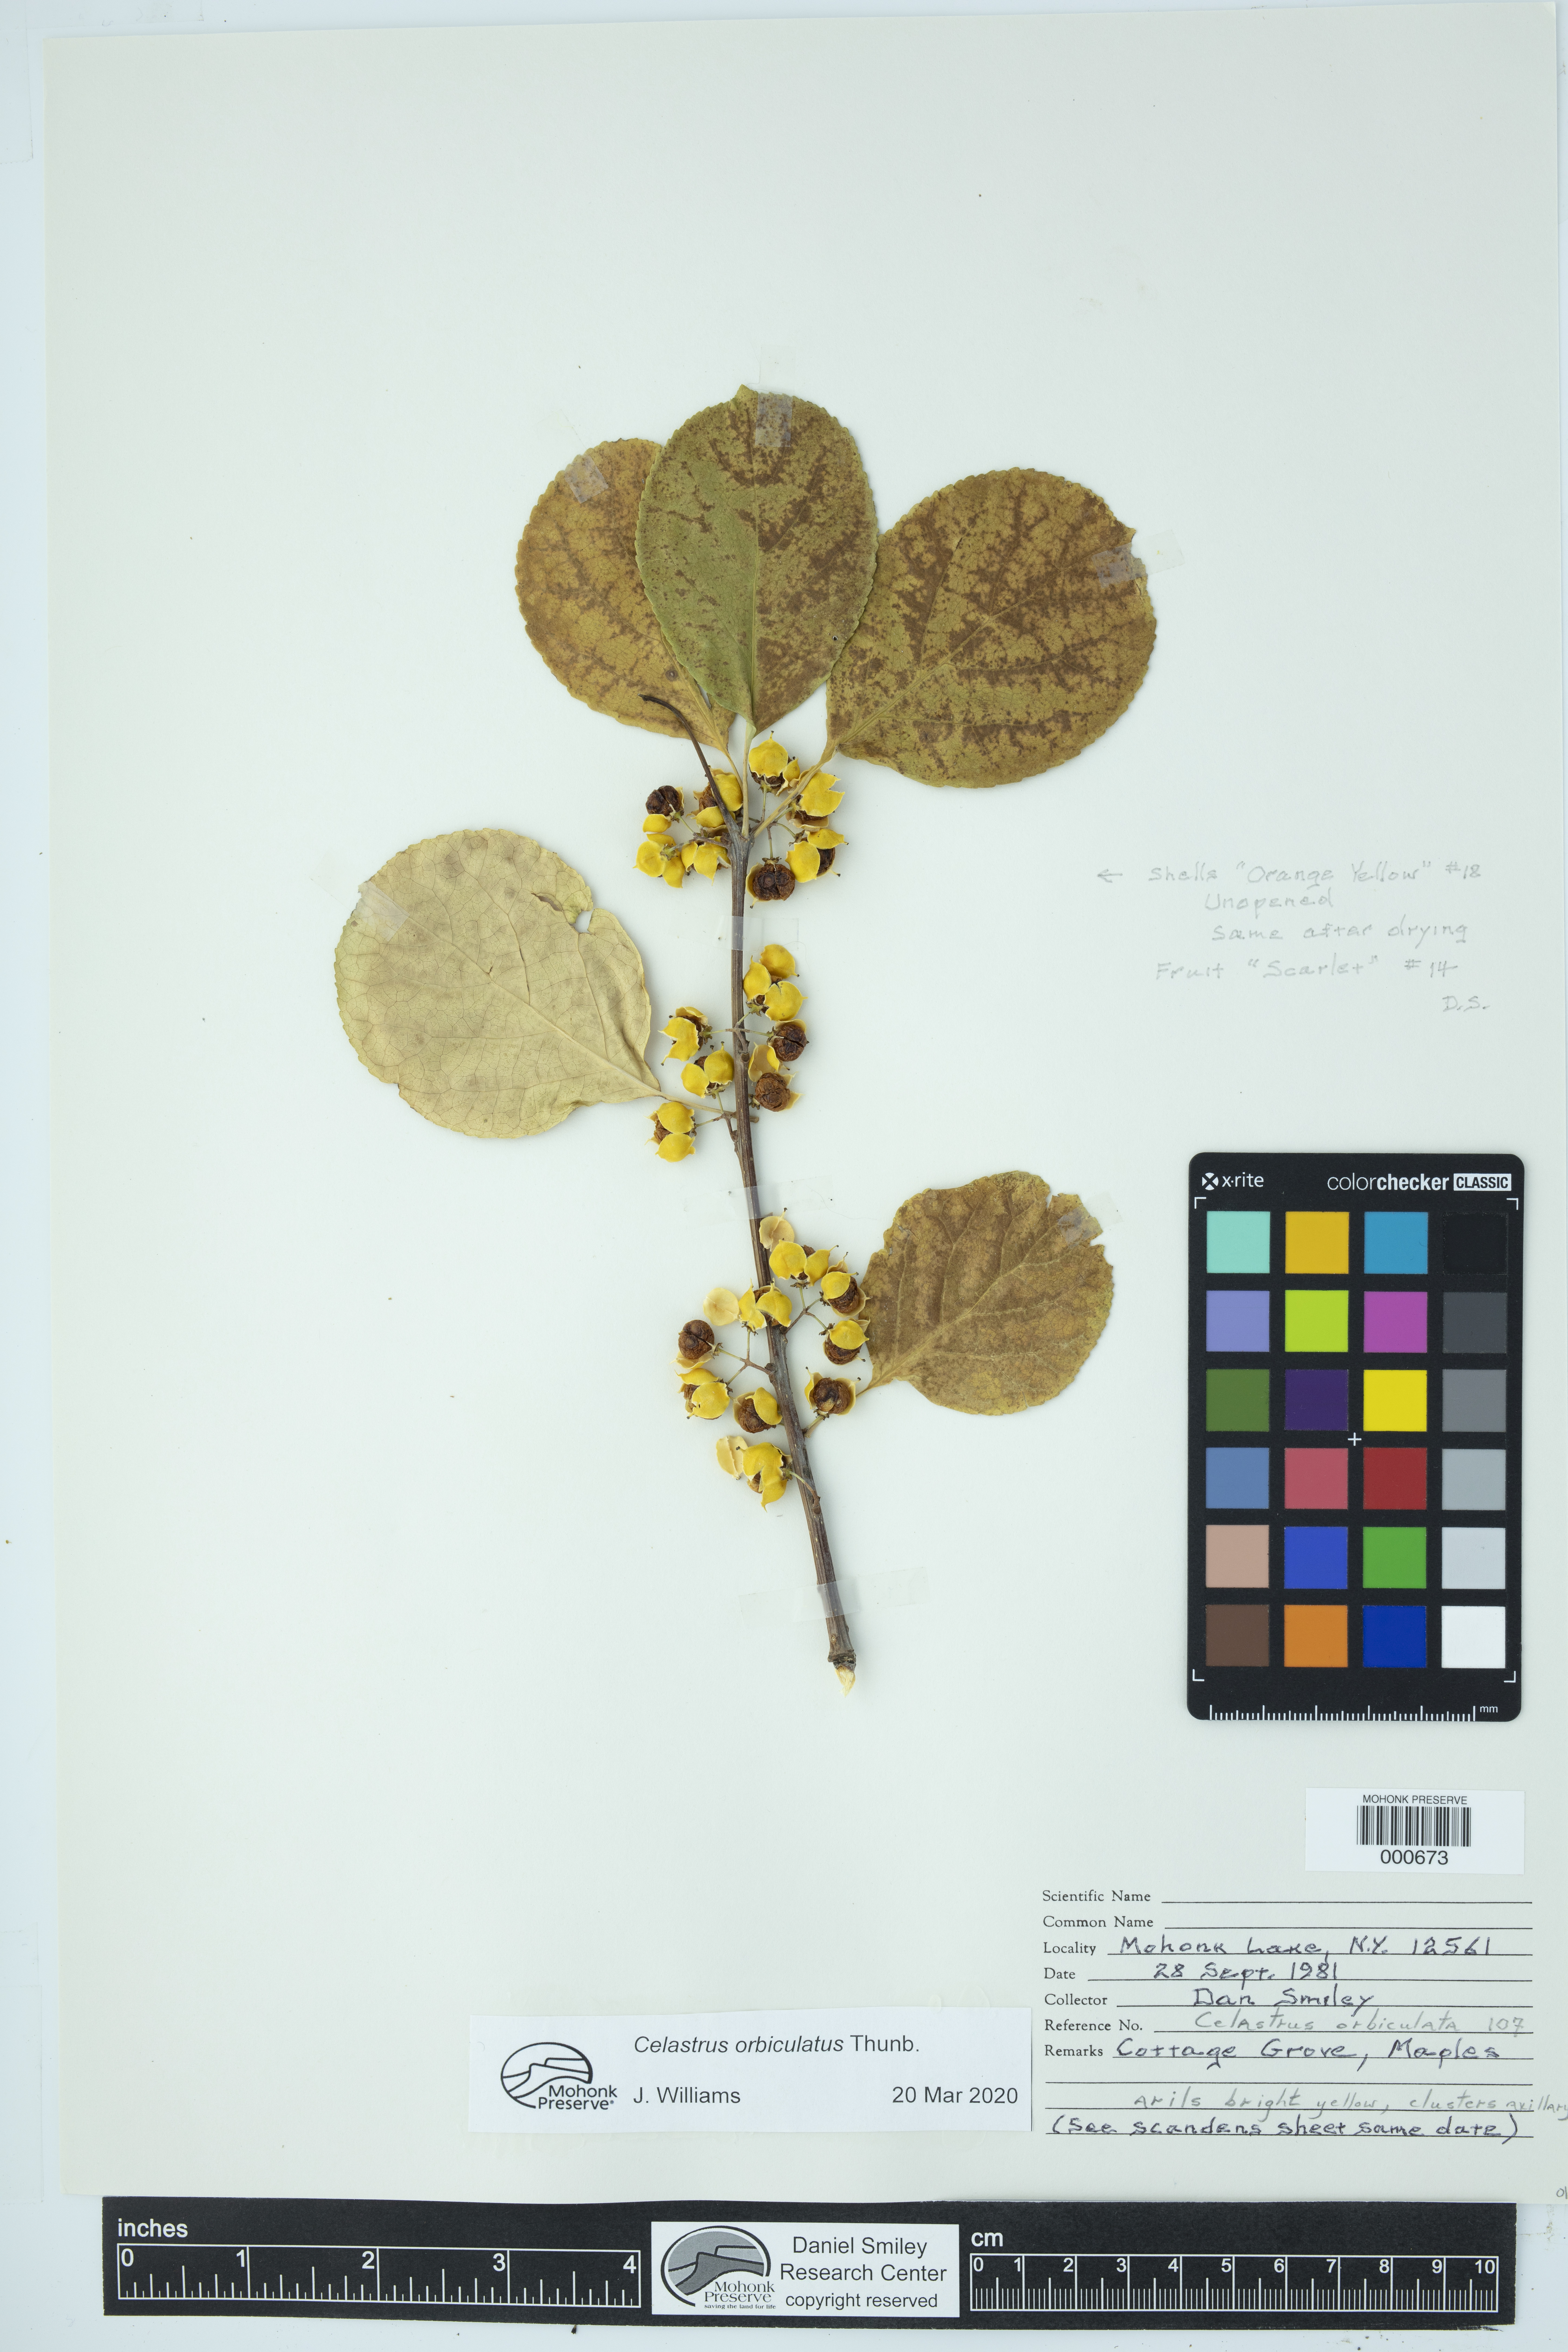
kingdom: Plantae
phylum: Tracheophyta
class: Magnoliopsida
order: Celastrales
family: Celastraceae
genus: Celastrus
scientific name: Celastrus orbiculatus
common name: Oriental bittersweet
